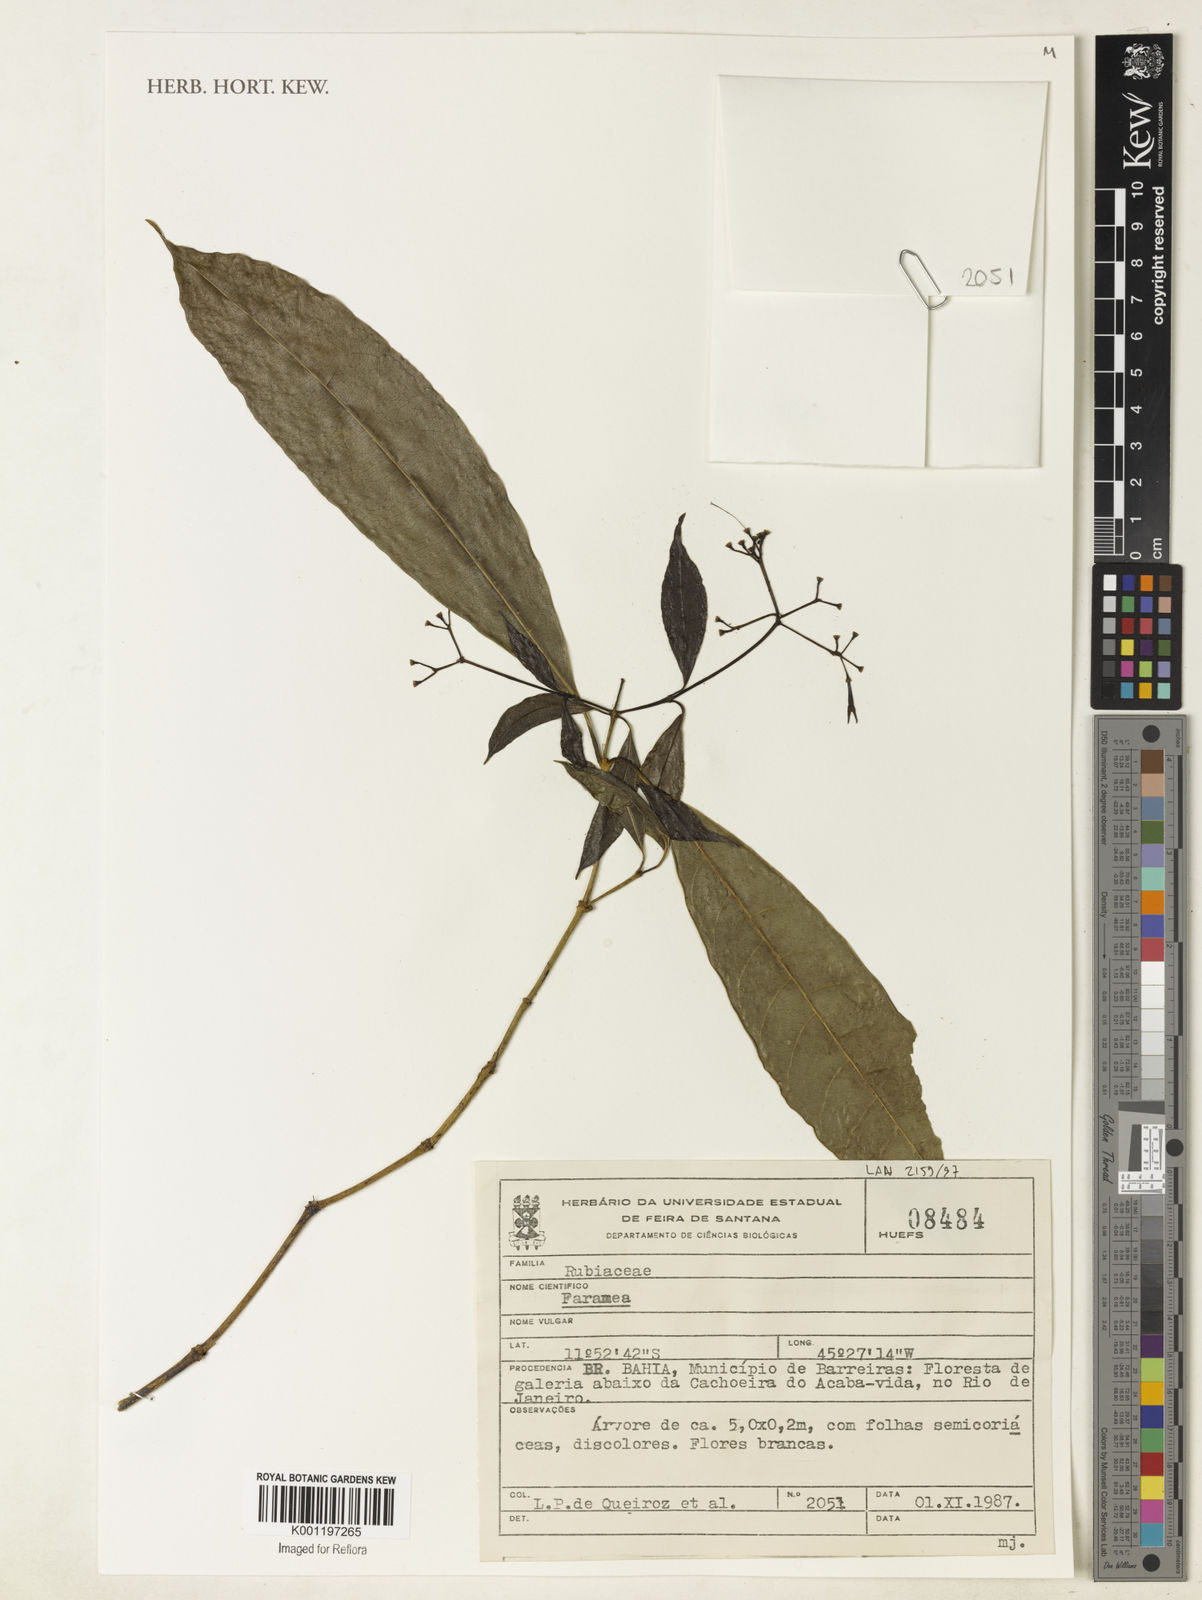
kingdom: Plantae
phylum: Tracheophyta
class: Magnoliopsida
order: Gentianales
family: Rubiaceae
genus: Faramea
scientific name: Faramea
